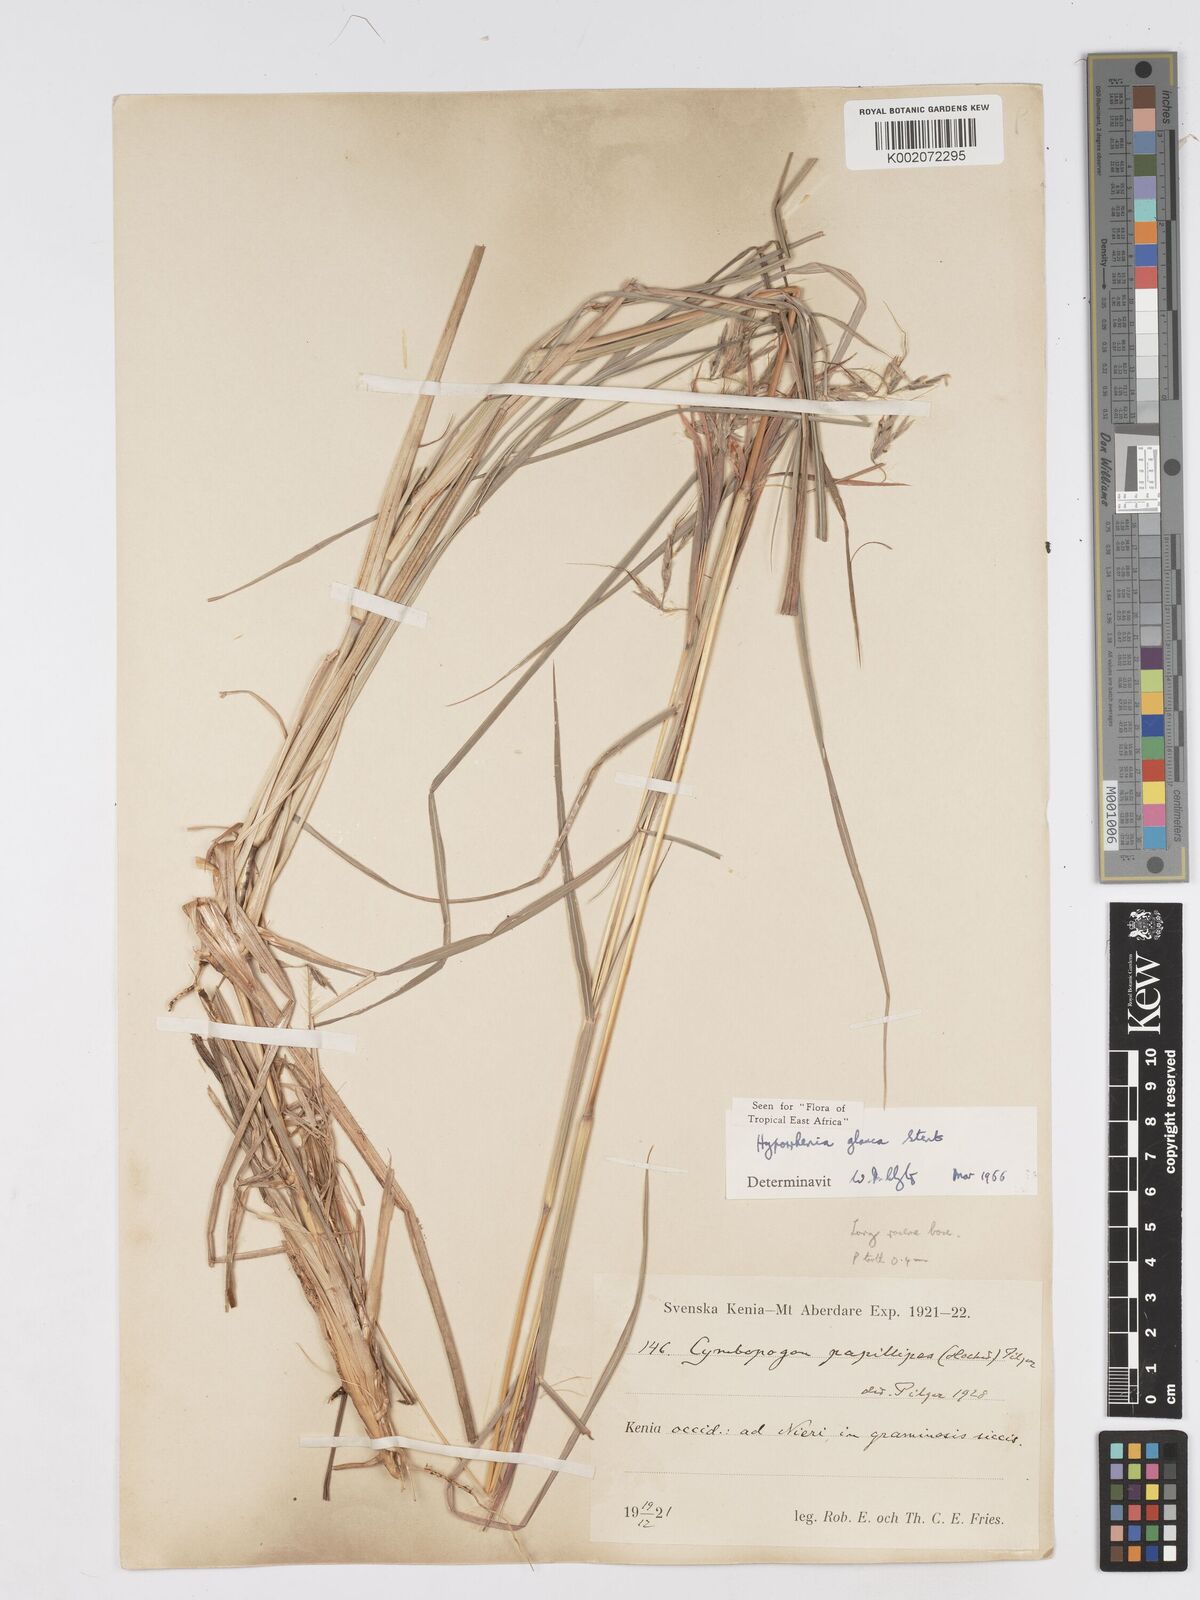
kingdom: Plantae
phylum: Tracheophyta
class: Liliopsida
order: Poales
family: Poaceae
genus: Hyparrhenia
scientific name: Hyparrhenia tamba
